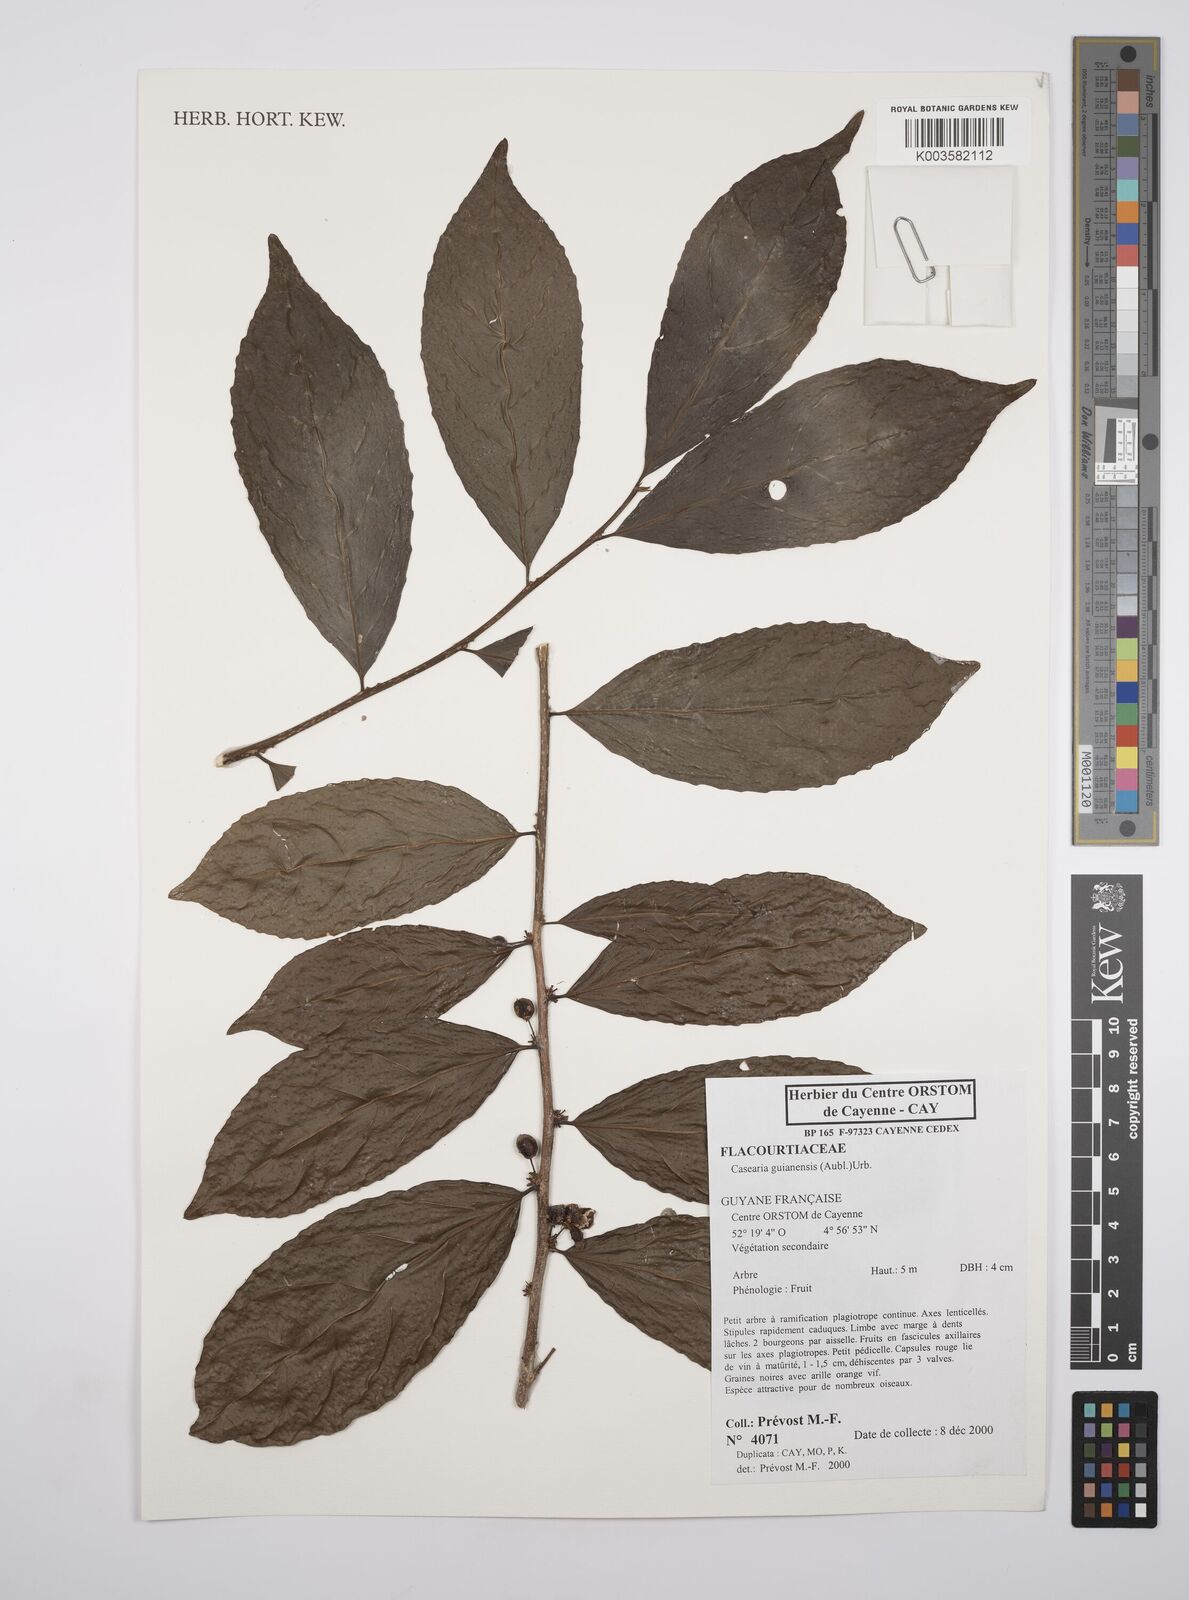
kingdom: Plantae
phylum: Tracheophyta
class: Magnoliopsida
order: Malpighiales
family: Salicaceae
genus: Casearia
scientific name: Casearia guianensis
